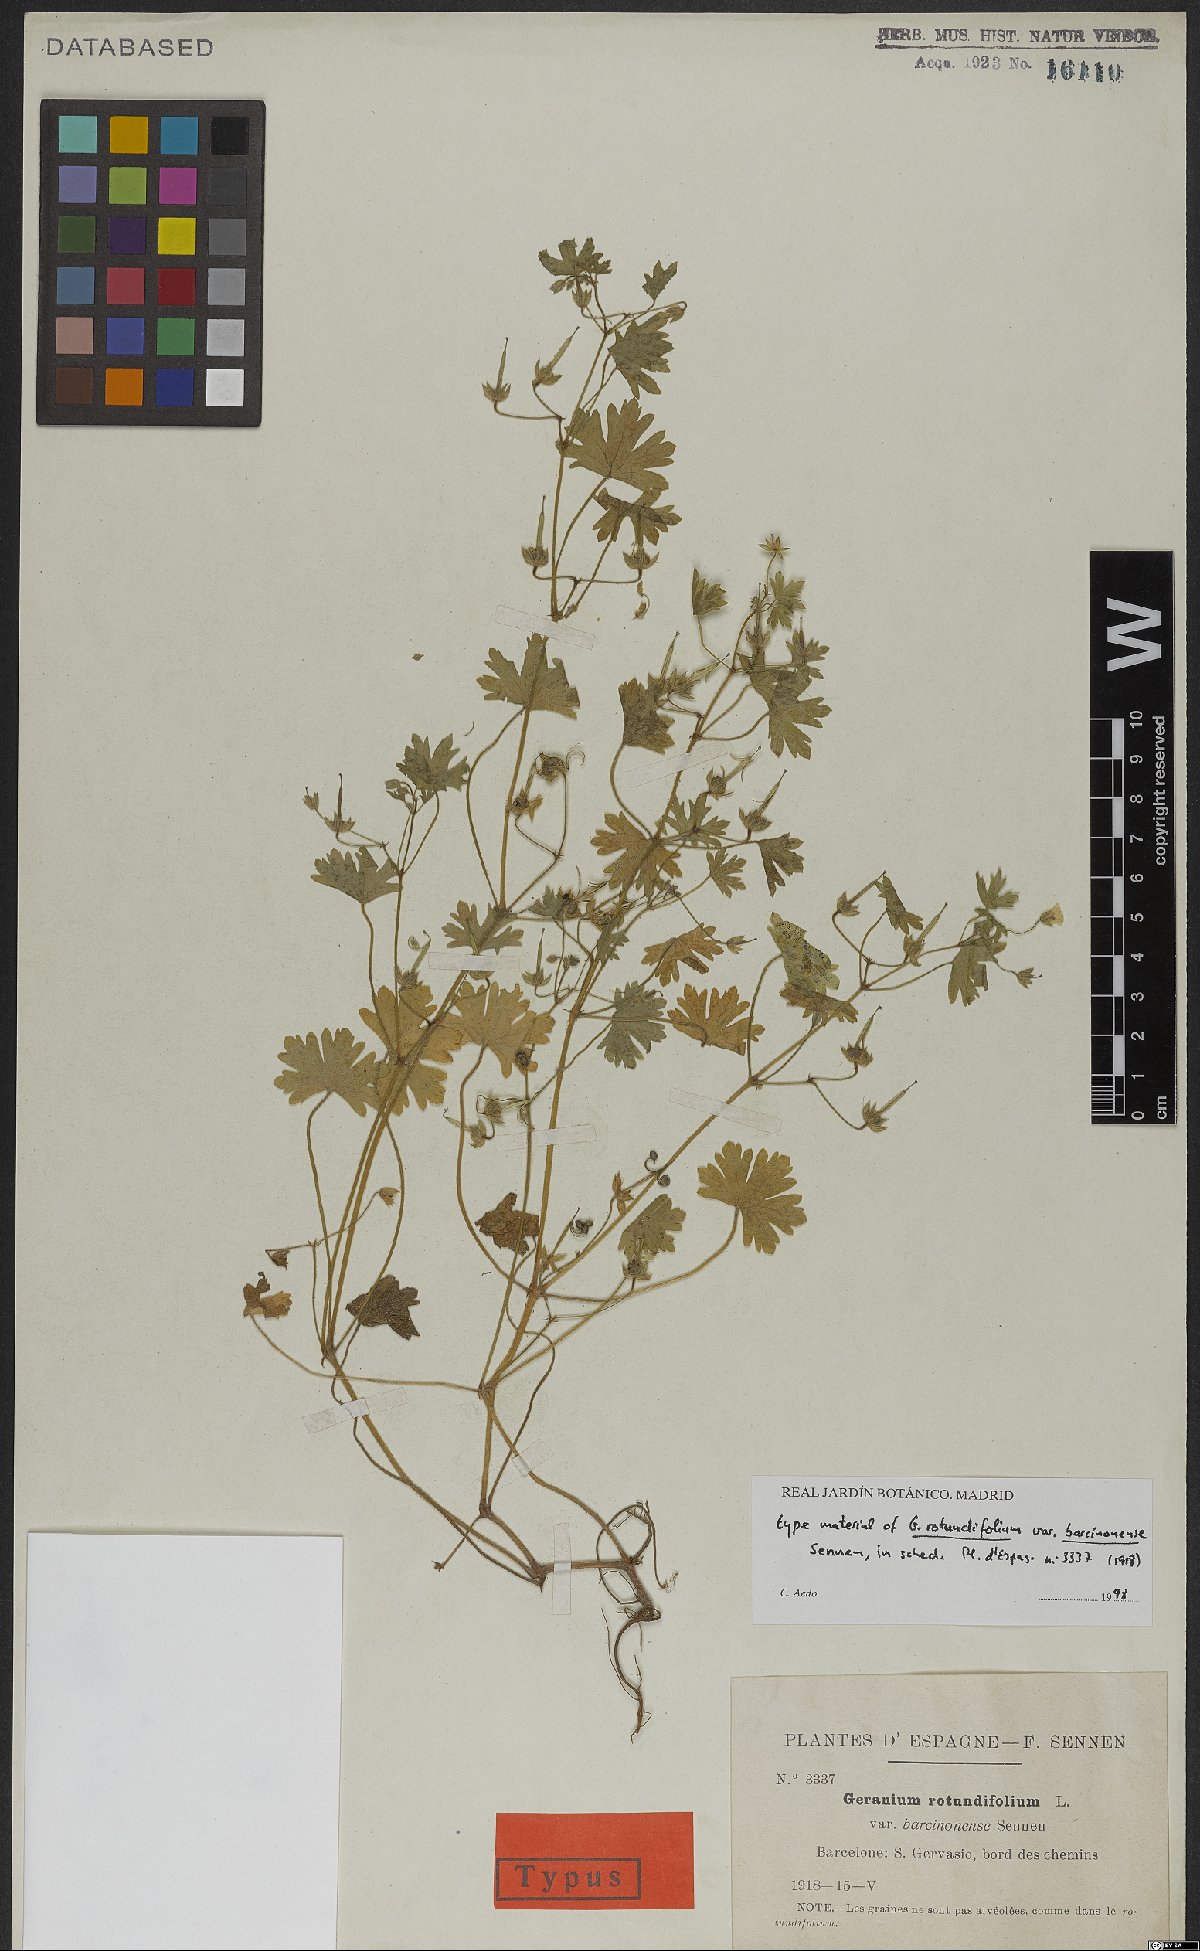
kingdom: Plantae
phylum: Tracheophyta
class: Magnoliopsida
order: Geraniales
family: Geraniaceae
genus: Geranium
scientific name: Geranium rotundifolium
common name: Round-leaved crane's-bill
